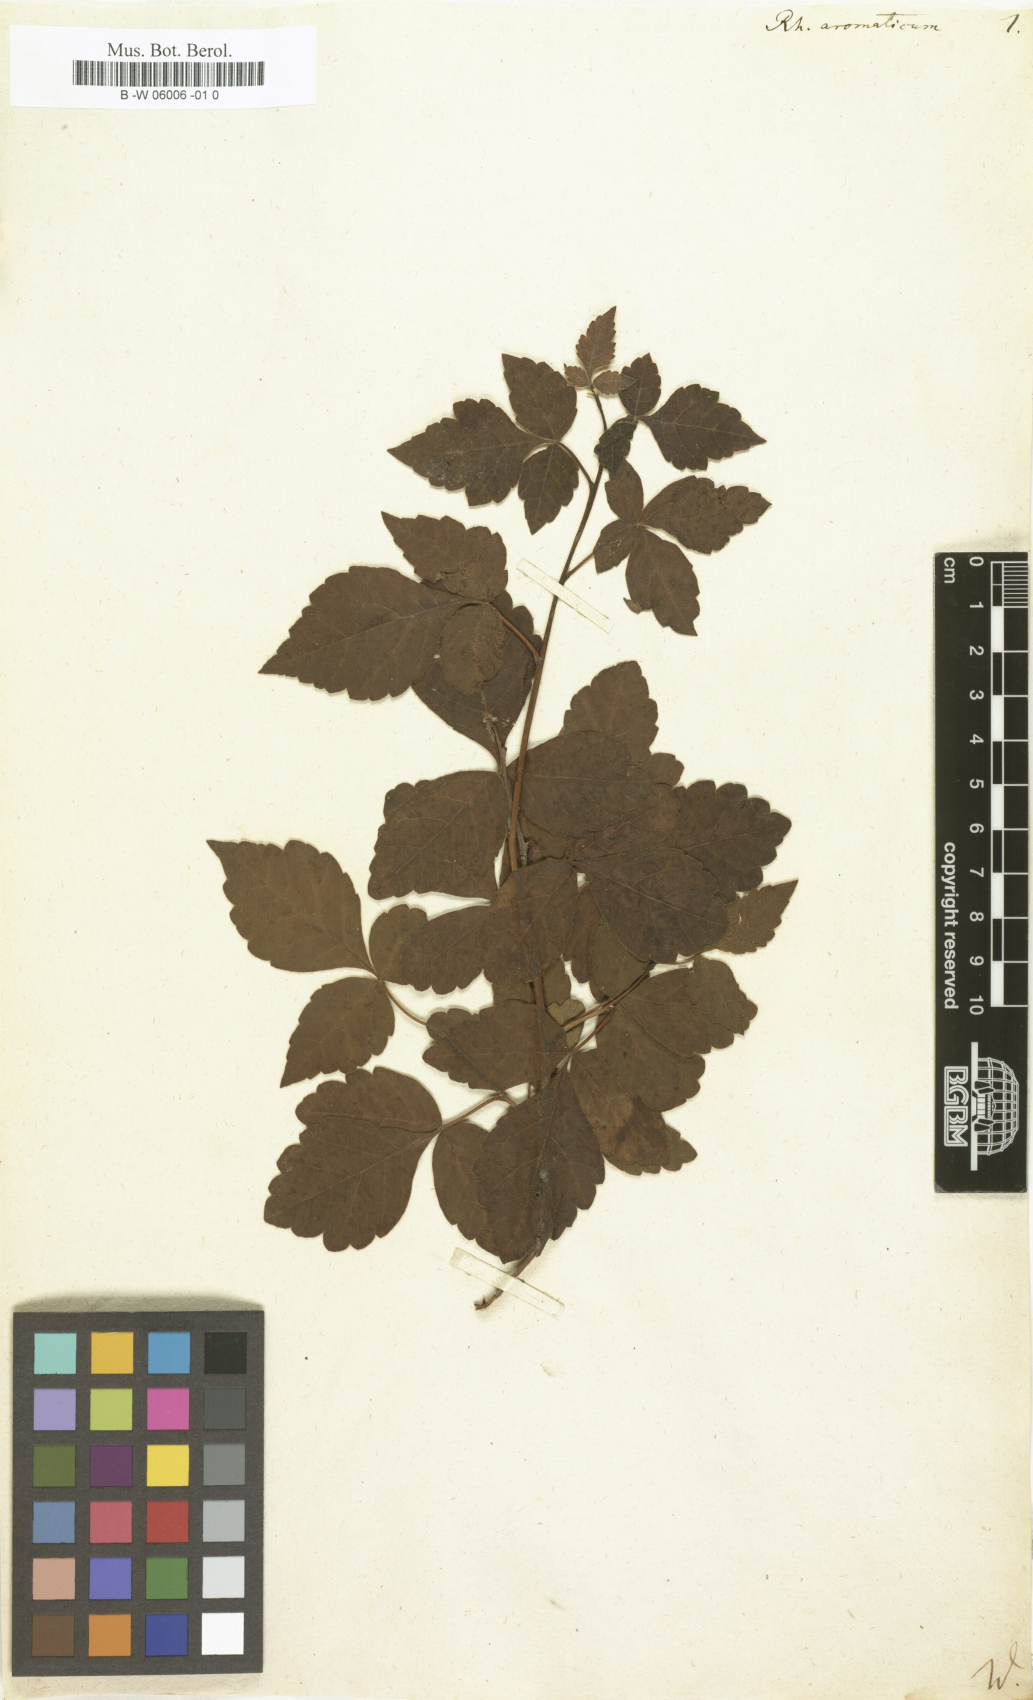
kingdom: Plantae
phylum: Tracheophyta
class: Magnoliopsida
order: Sapindales
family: Anacardiaceae
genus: Rhus
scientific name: Rhus aromatica
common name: Aromatic sumac
